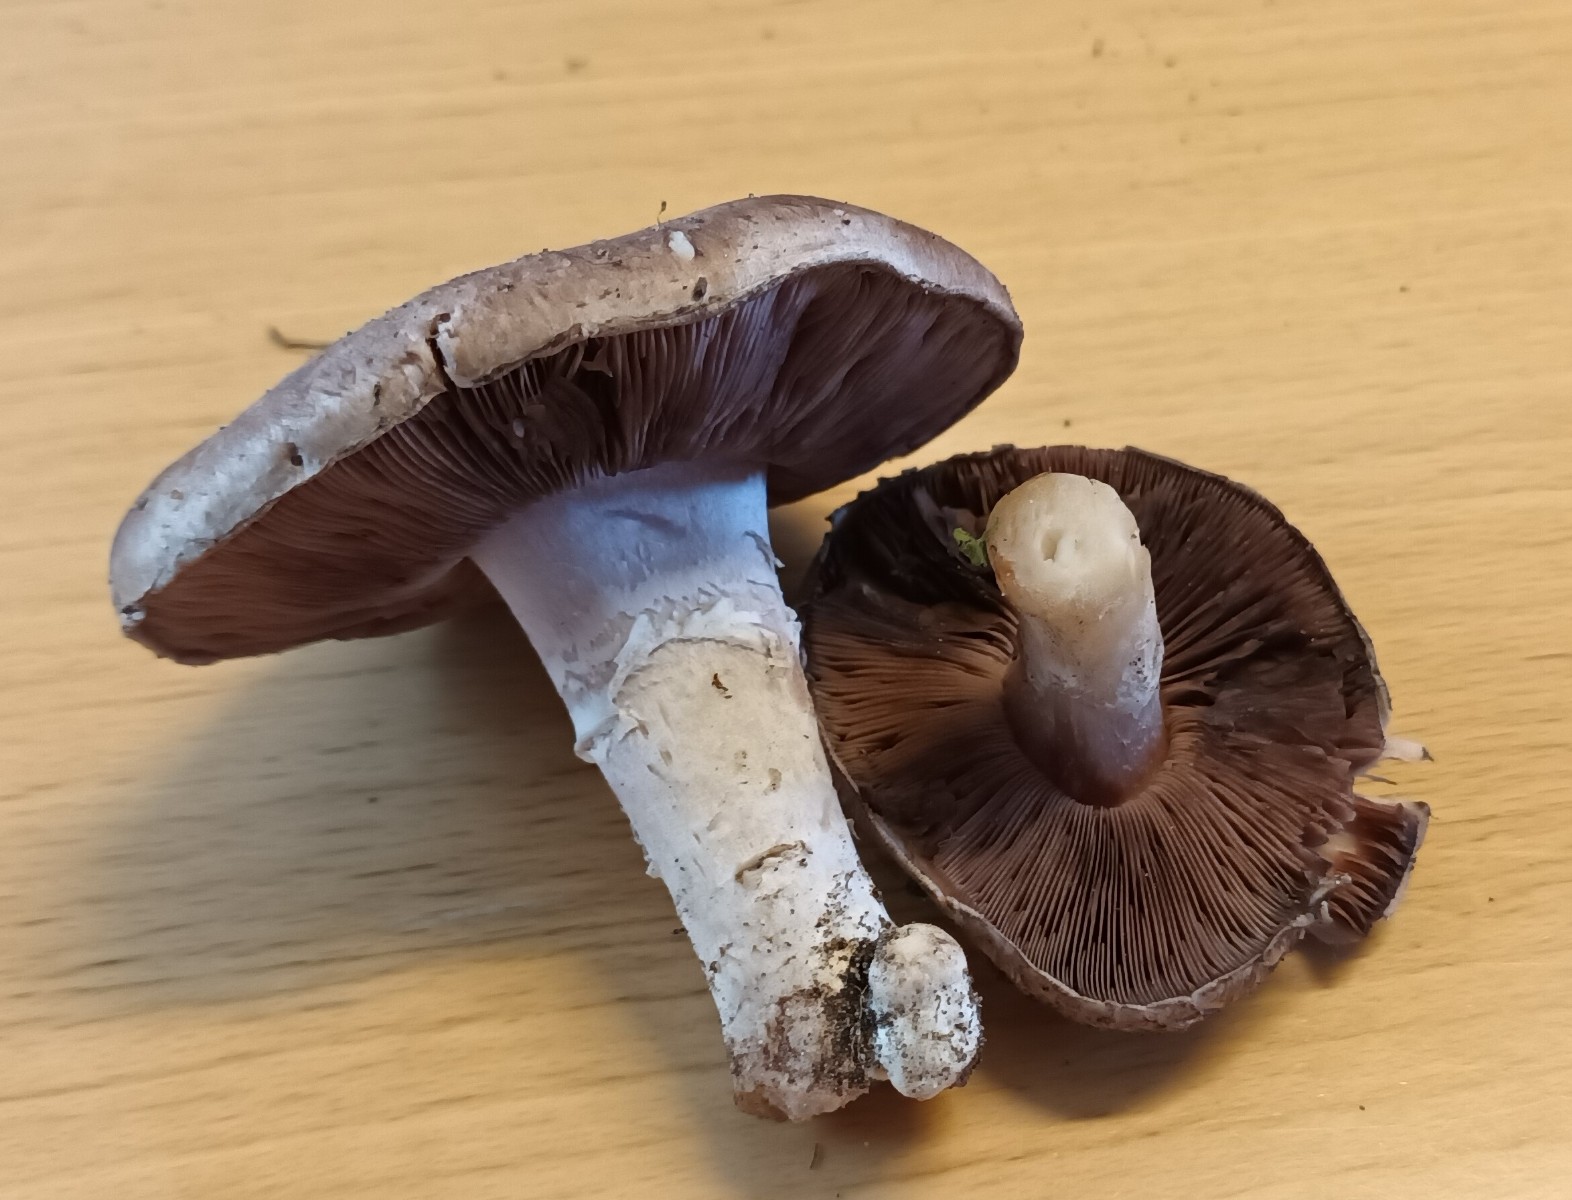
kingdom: Fungi
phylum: Basidiomycota
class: Agaricomycetes
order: Agaricales
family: Agaricaceae
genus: Agaricus
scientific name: Agaricus cupreobrunneus
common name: kobberbrun champignon
